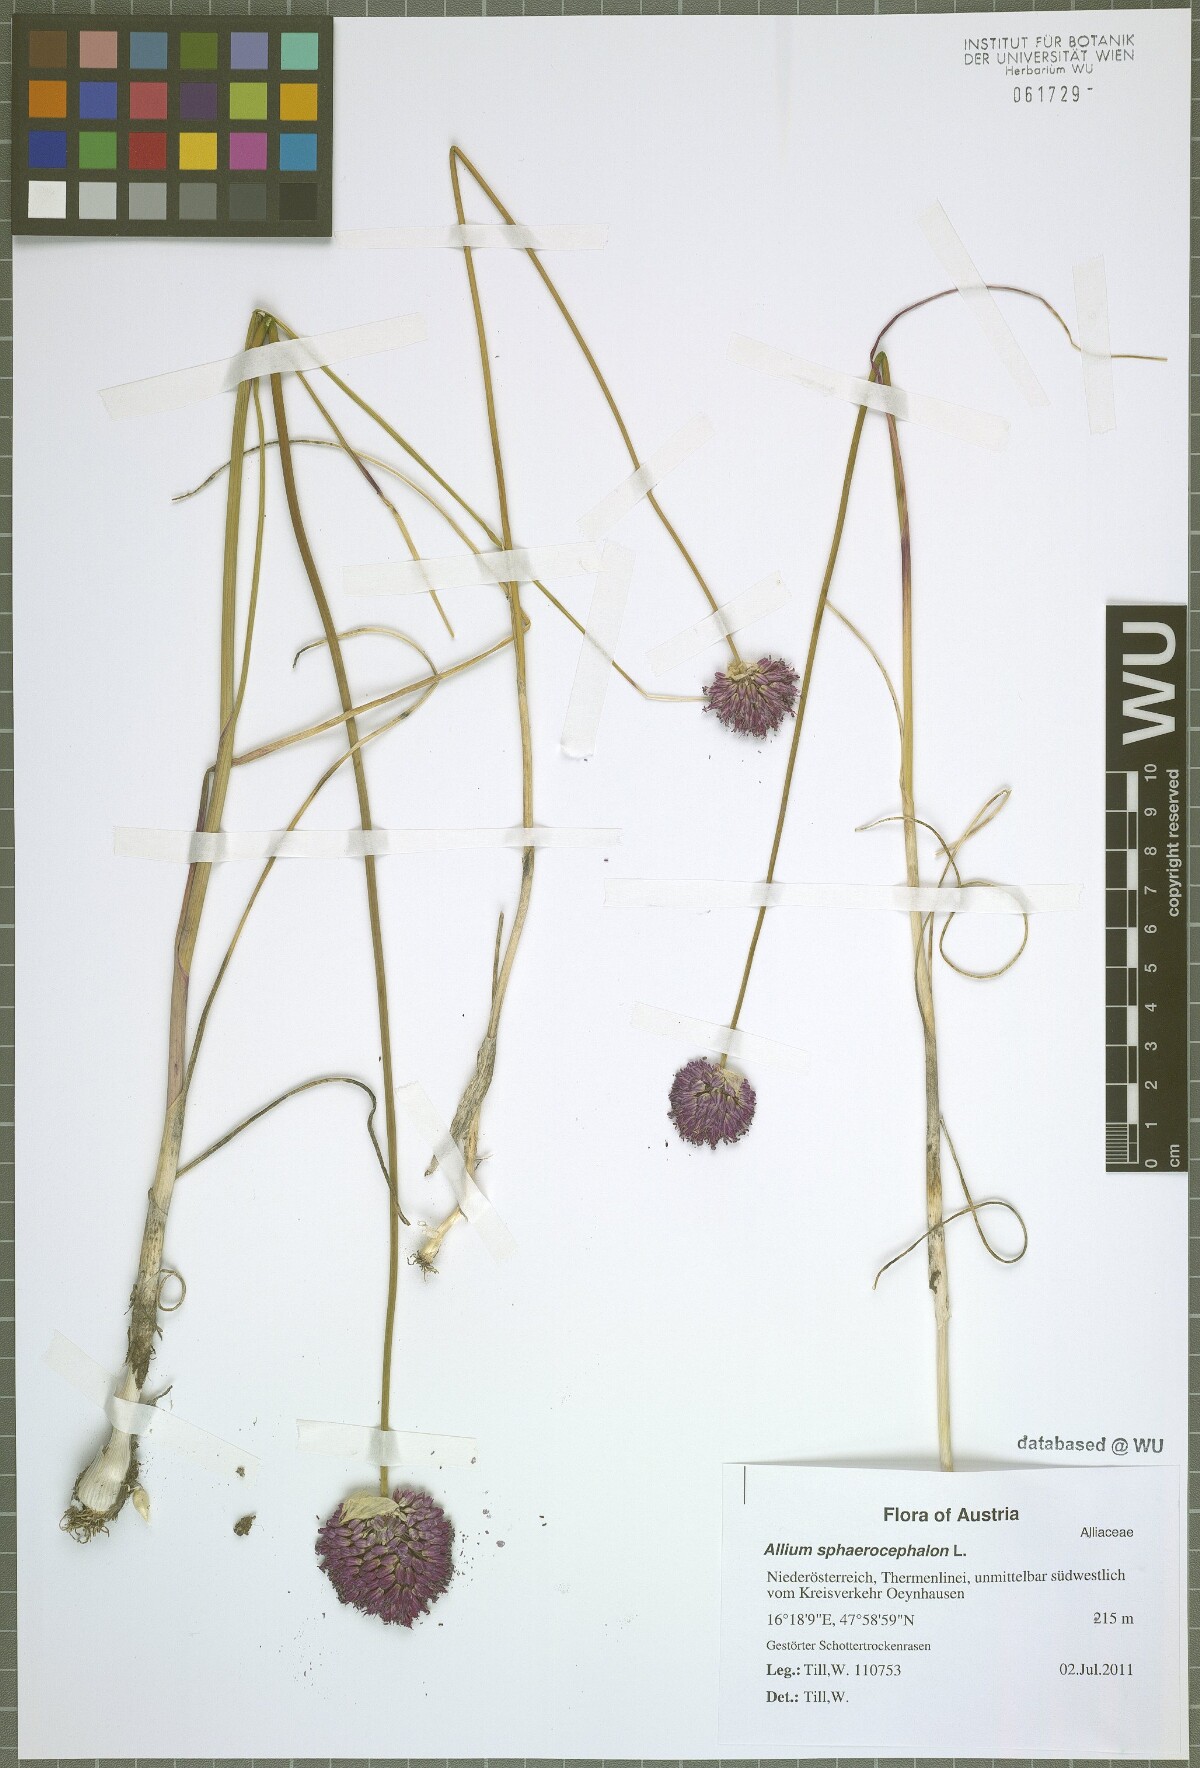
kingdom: Plantae
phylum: Tracheophyta
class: Liliopsida
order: Asparagales
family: Amaryllidaceae
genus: Allium
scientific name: Allium sphaerocephalon
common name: Round-headed leek
